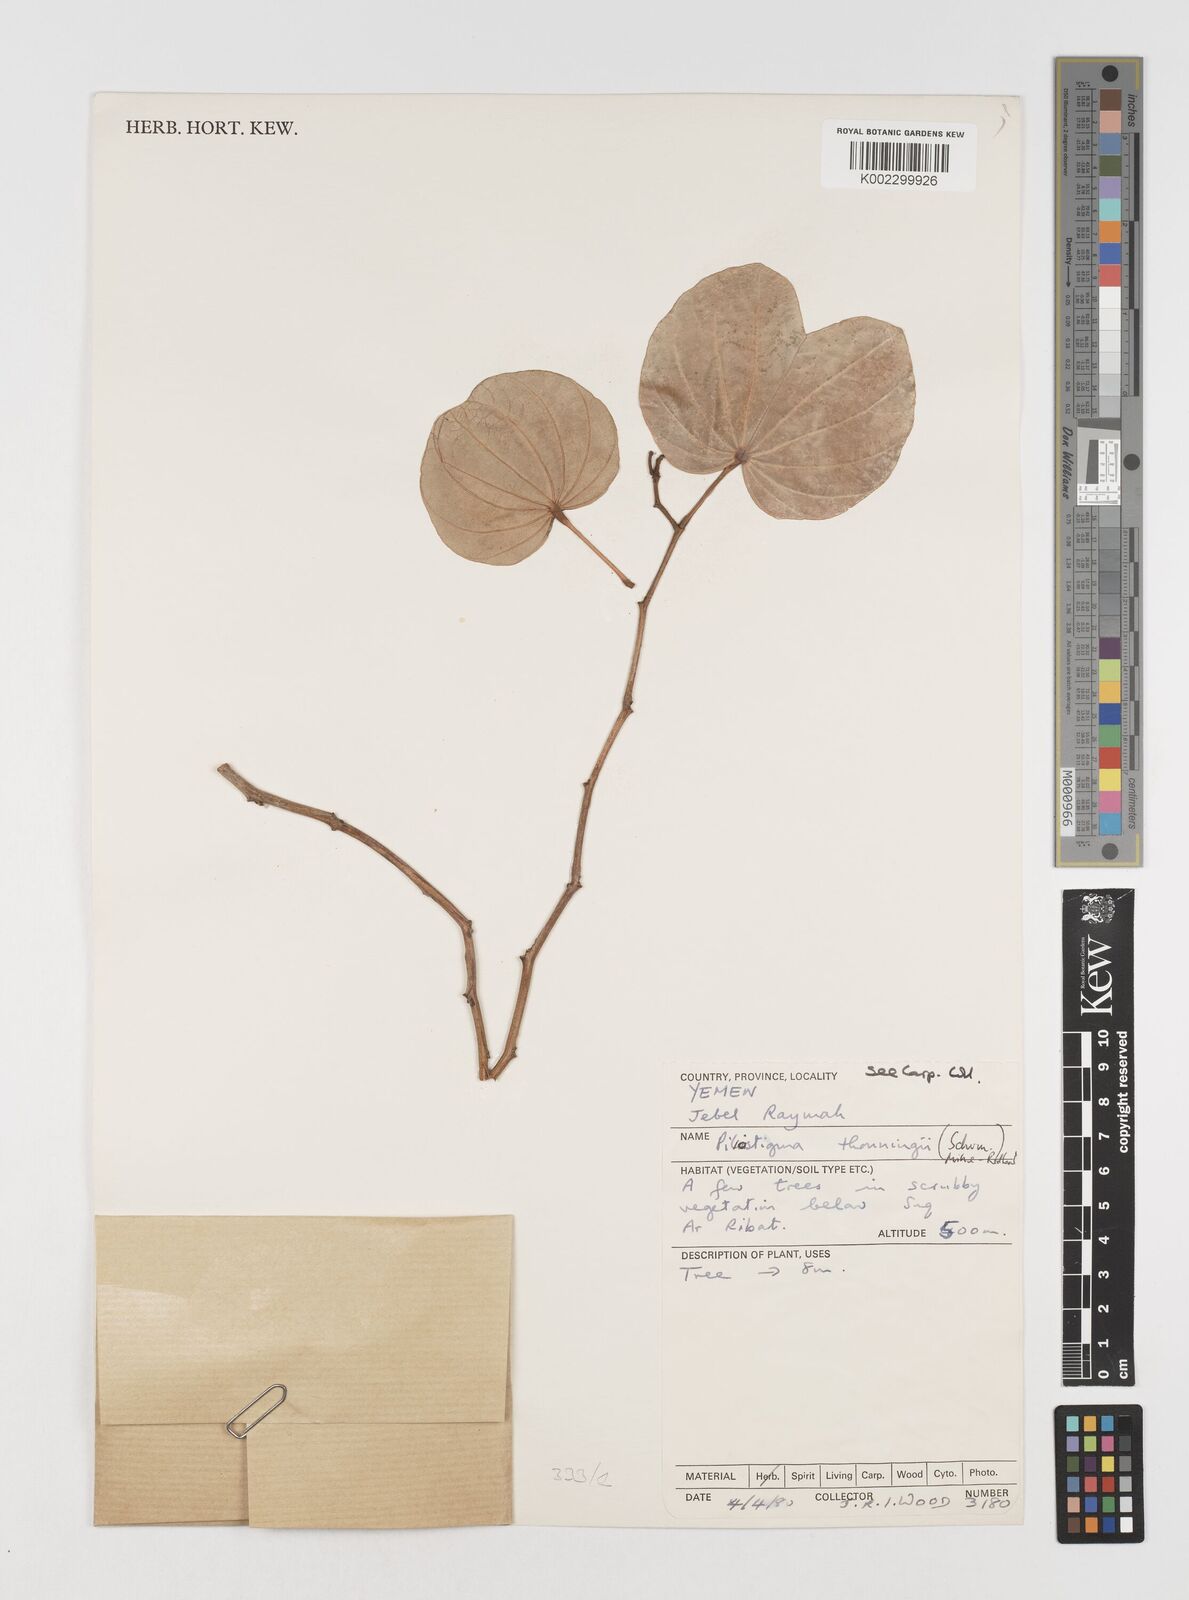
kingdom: Plantae
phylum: Tracheophyta
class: Magnoliopsida
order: Fabales
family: Fabaceae
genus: Piliostigma
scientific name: Piliostigma thonningii
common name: Kao
